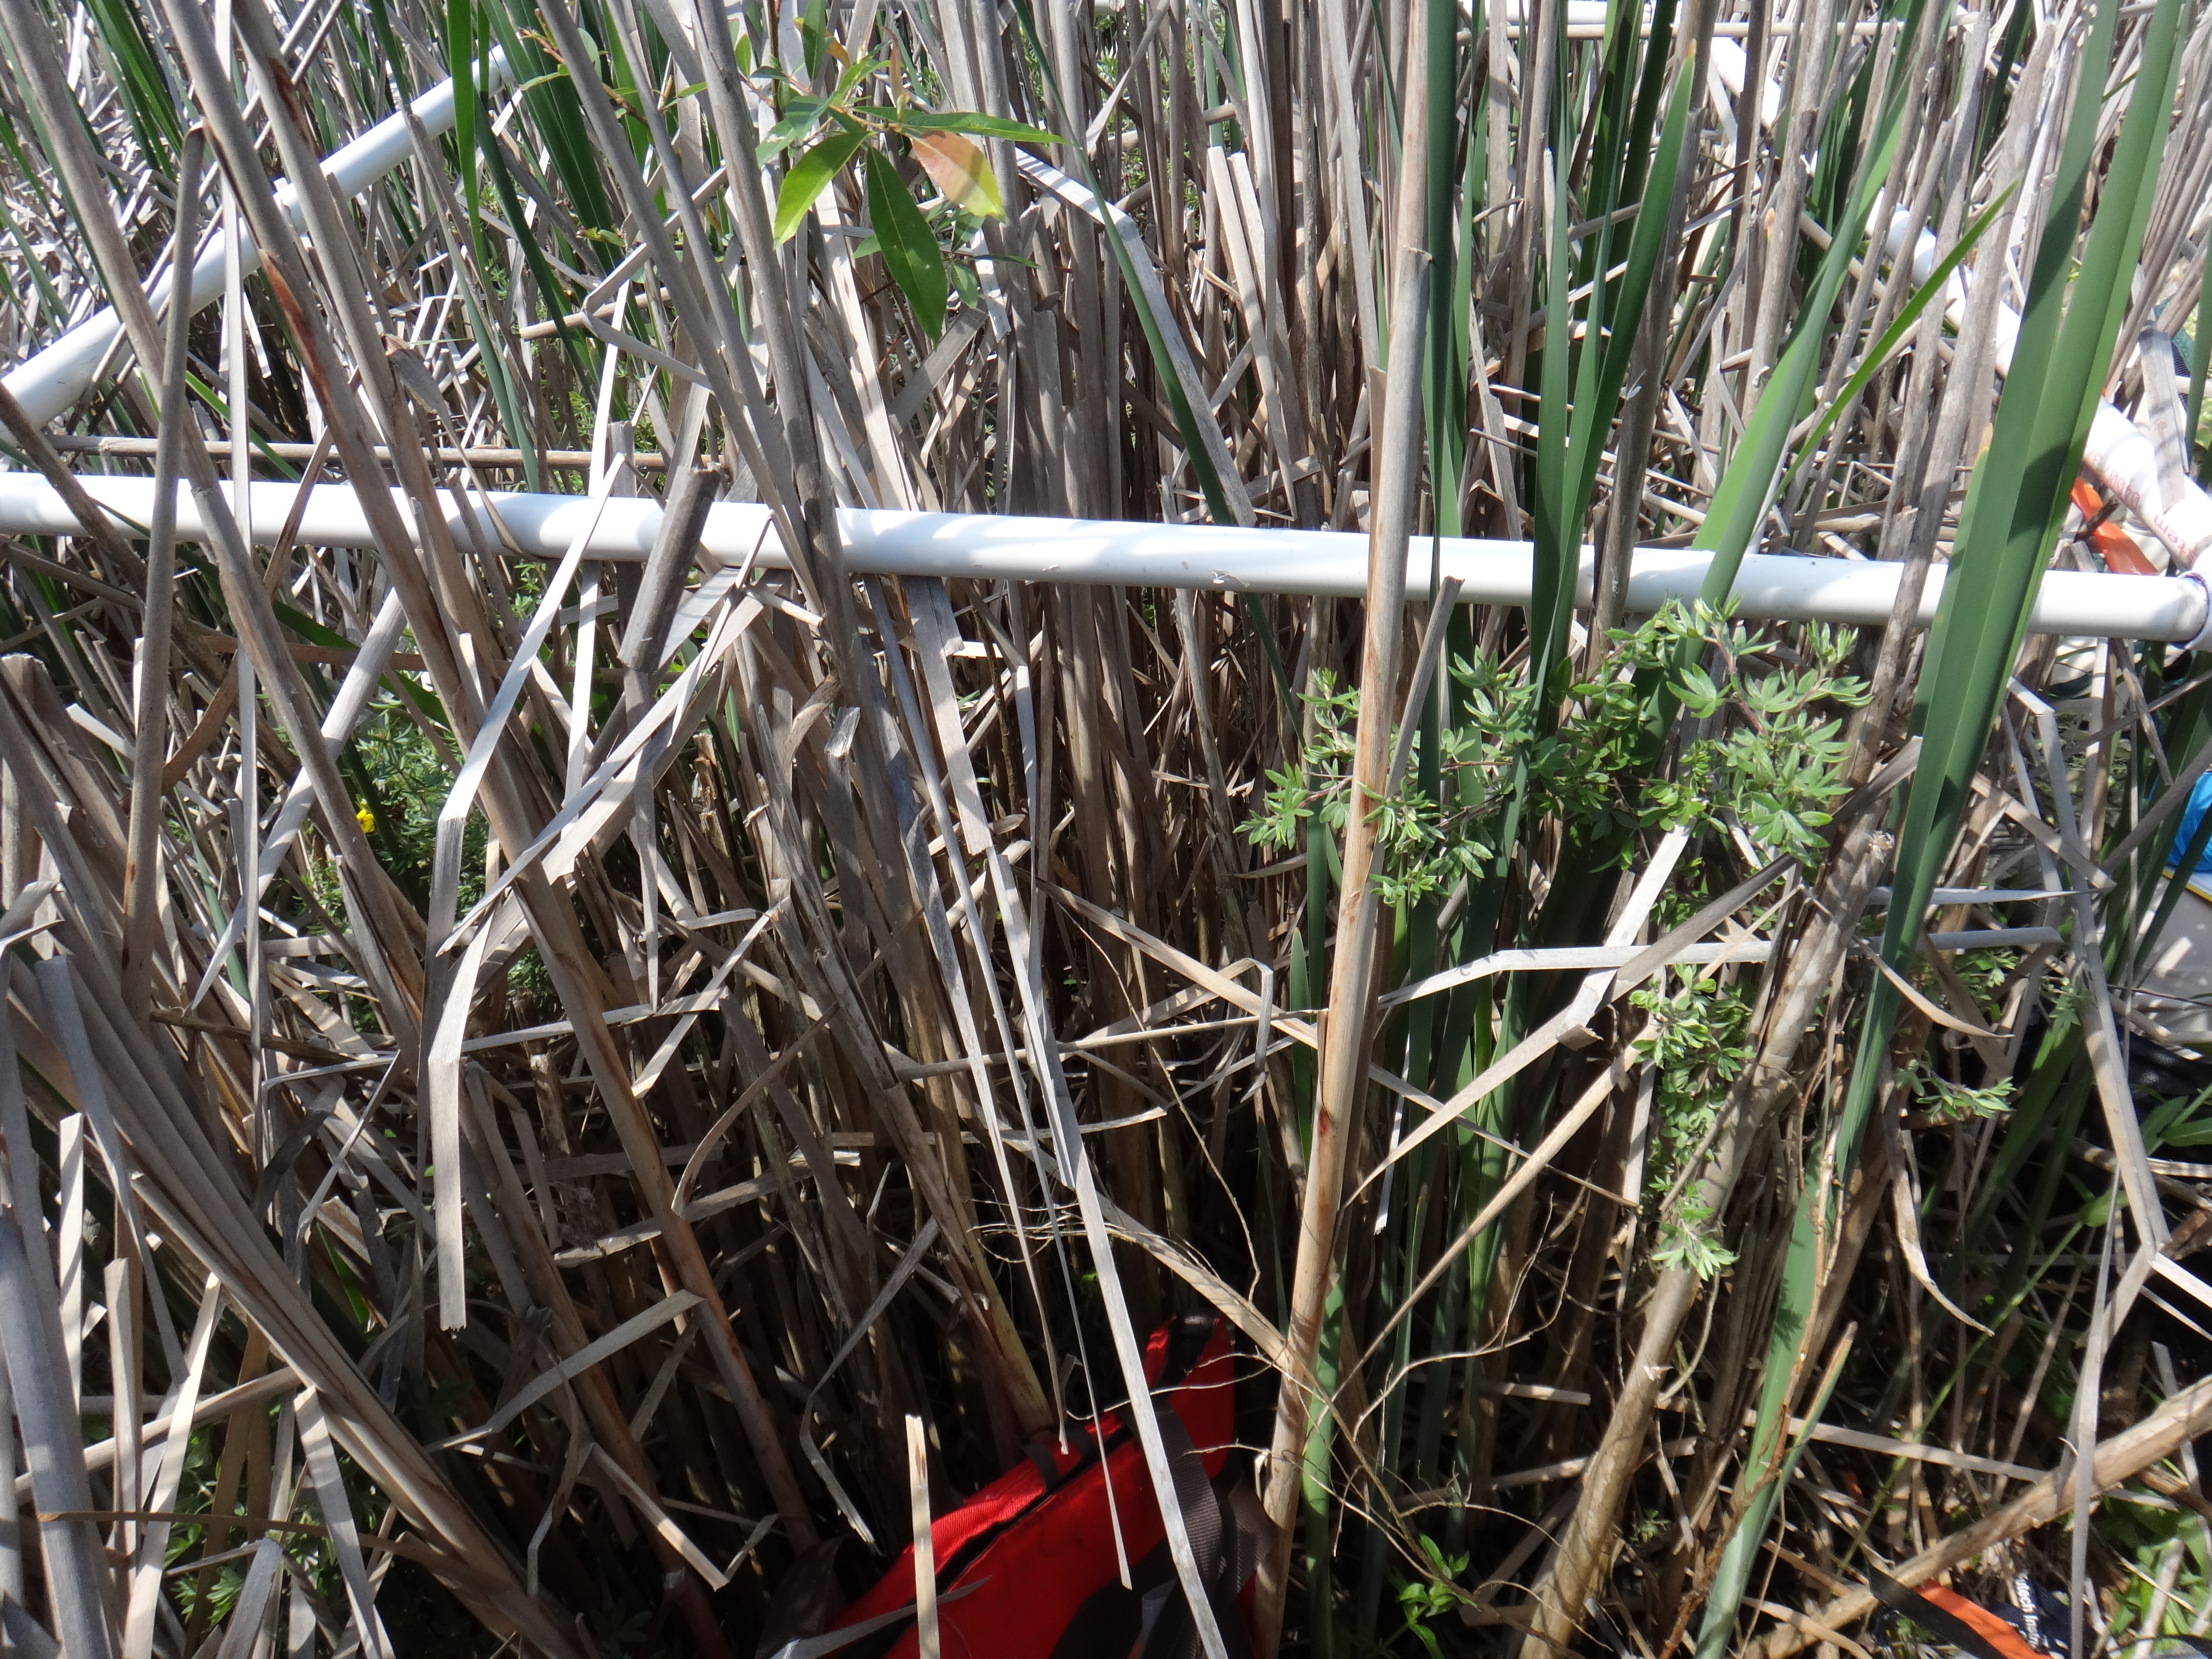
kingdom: Plantae
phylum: Tracheophyta
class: Liliopsida
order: Poales
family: Typhaceae
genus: Typha
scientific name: Typha latifolia
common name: Broadleaf cattail
